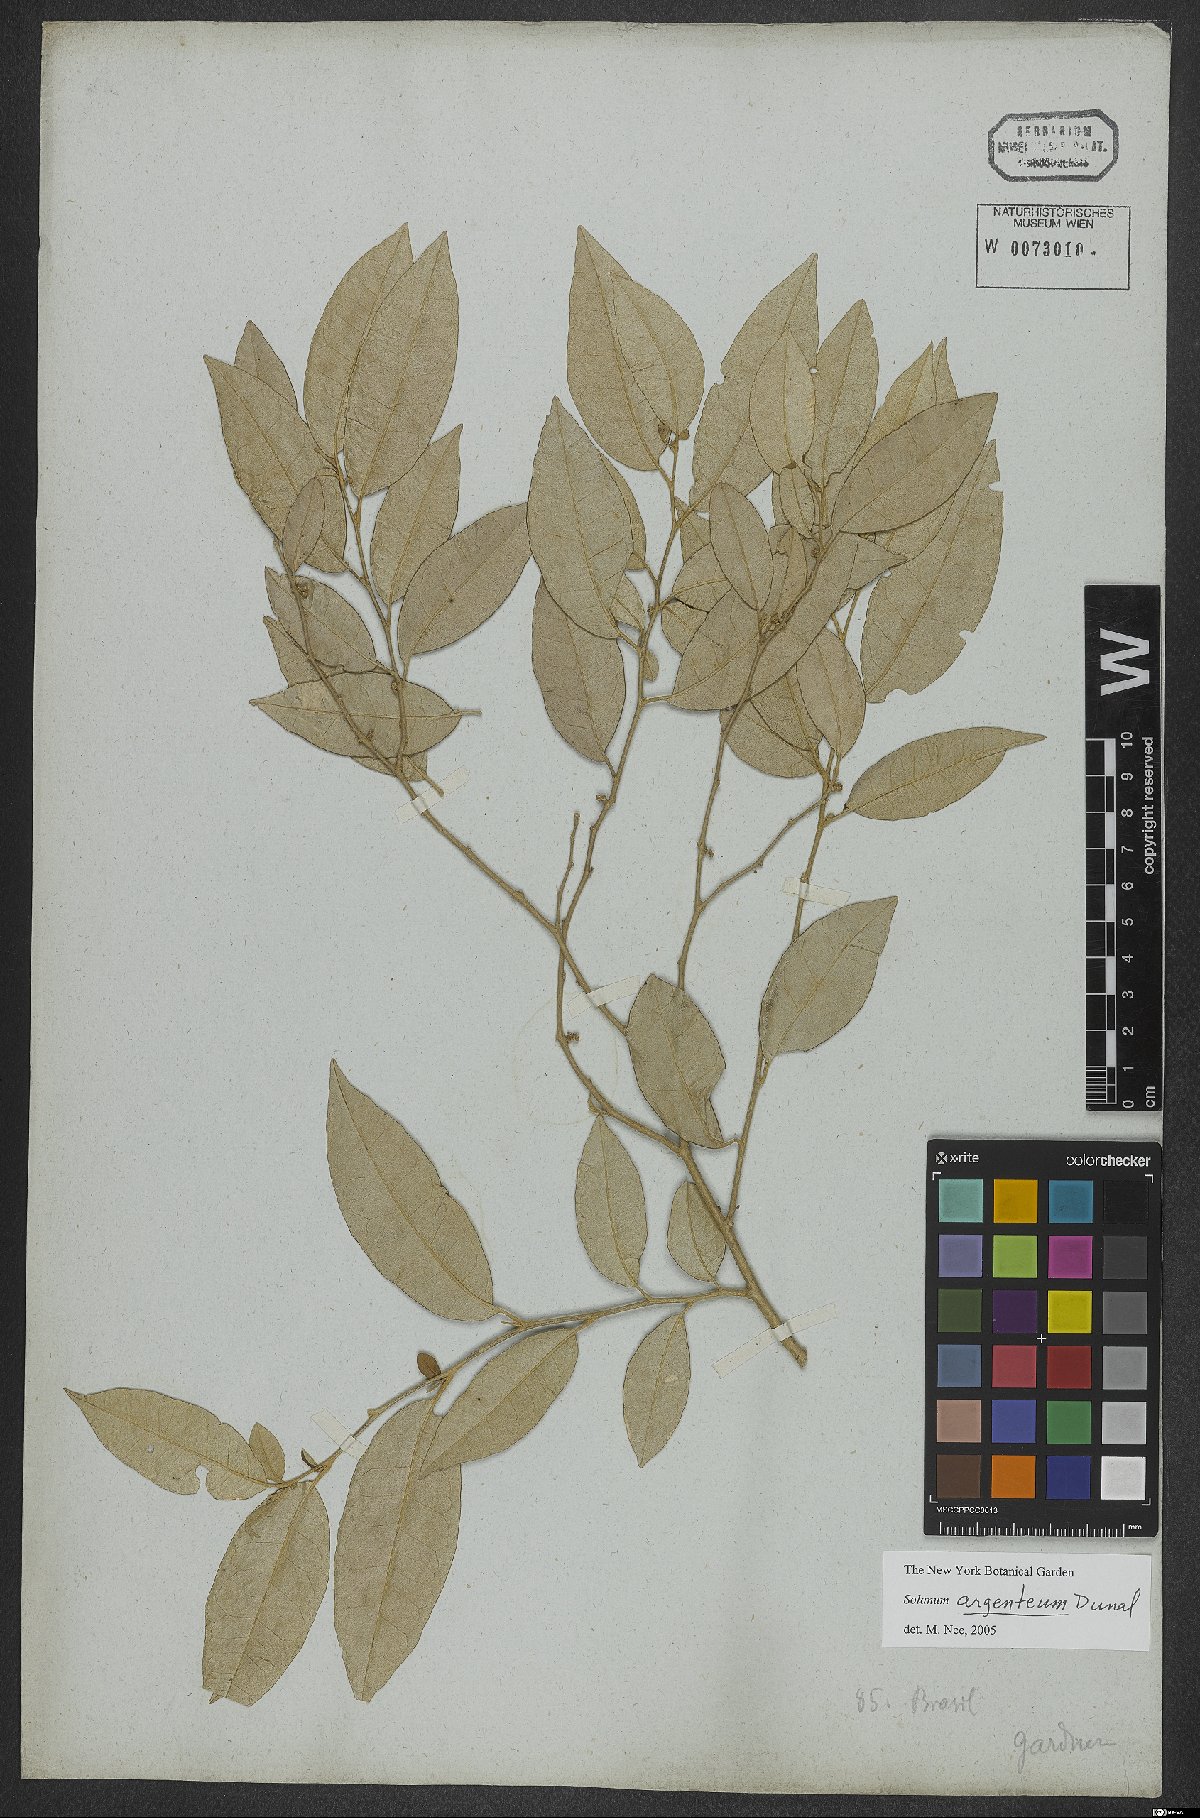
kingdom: Plantae
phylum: Tracheophyta
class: Magnoliopsida
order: Solanales
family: Solanaceae
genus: Solanum
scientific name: Solanum swartzianum
